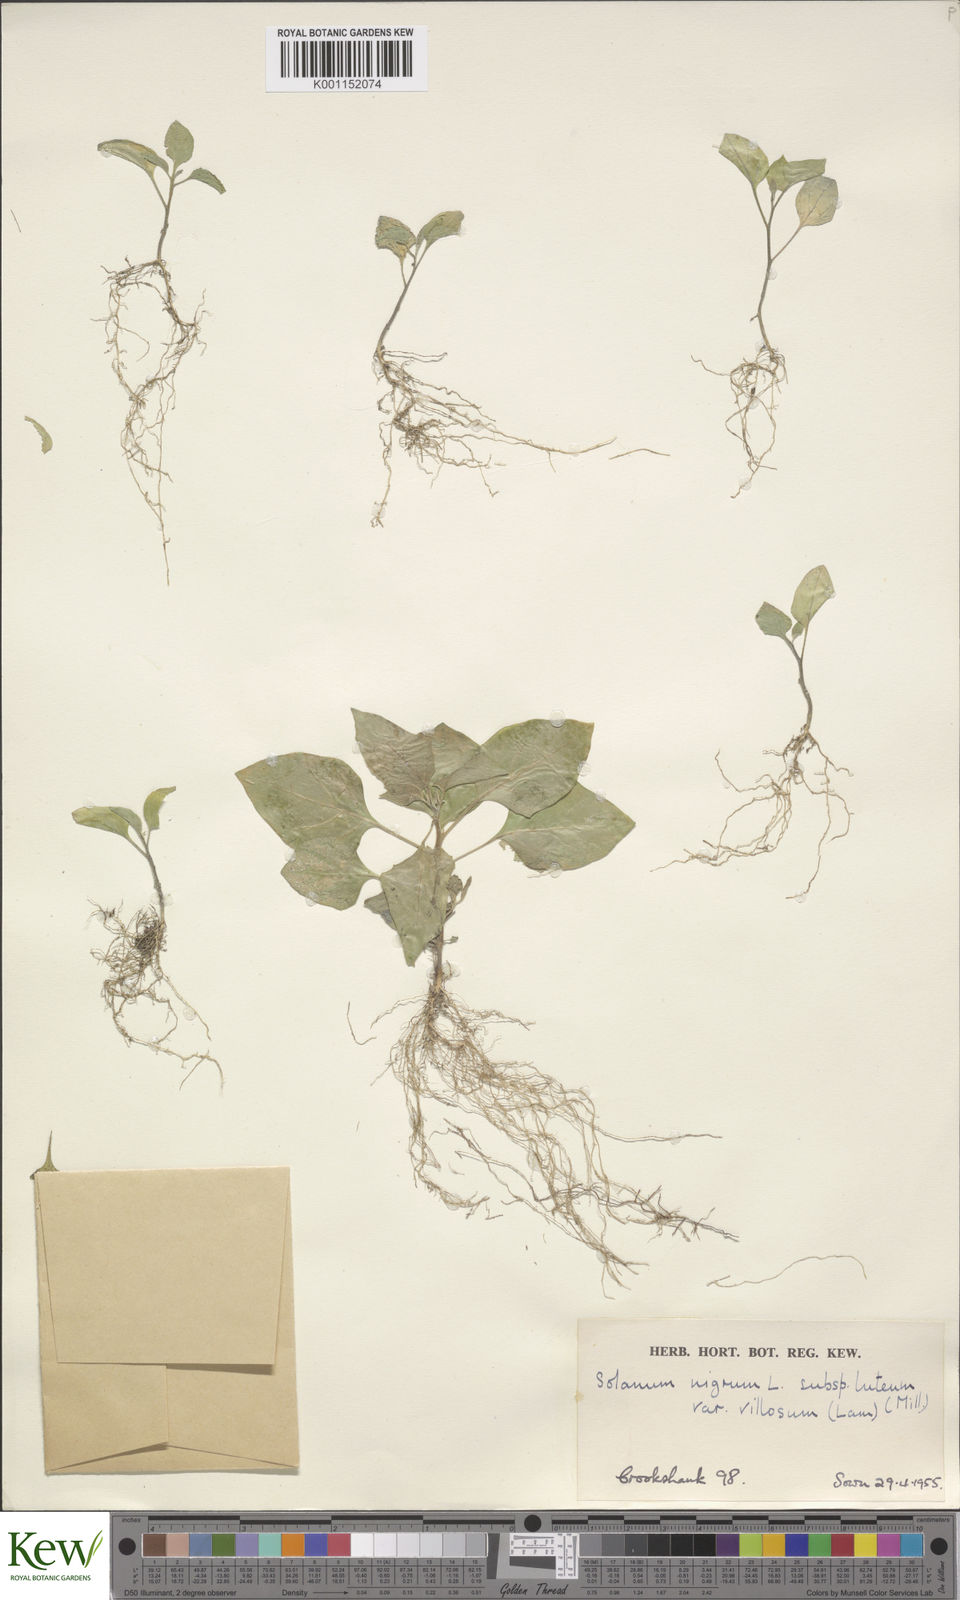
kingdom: Plantae
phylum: Tracheophyta
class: Magnoliopsida
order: Solanales
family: Solanaceae
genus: Solanum
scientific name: Solanum alatum
